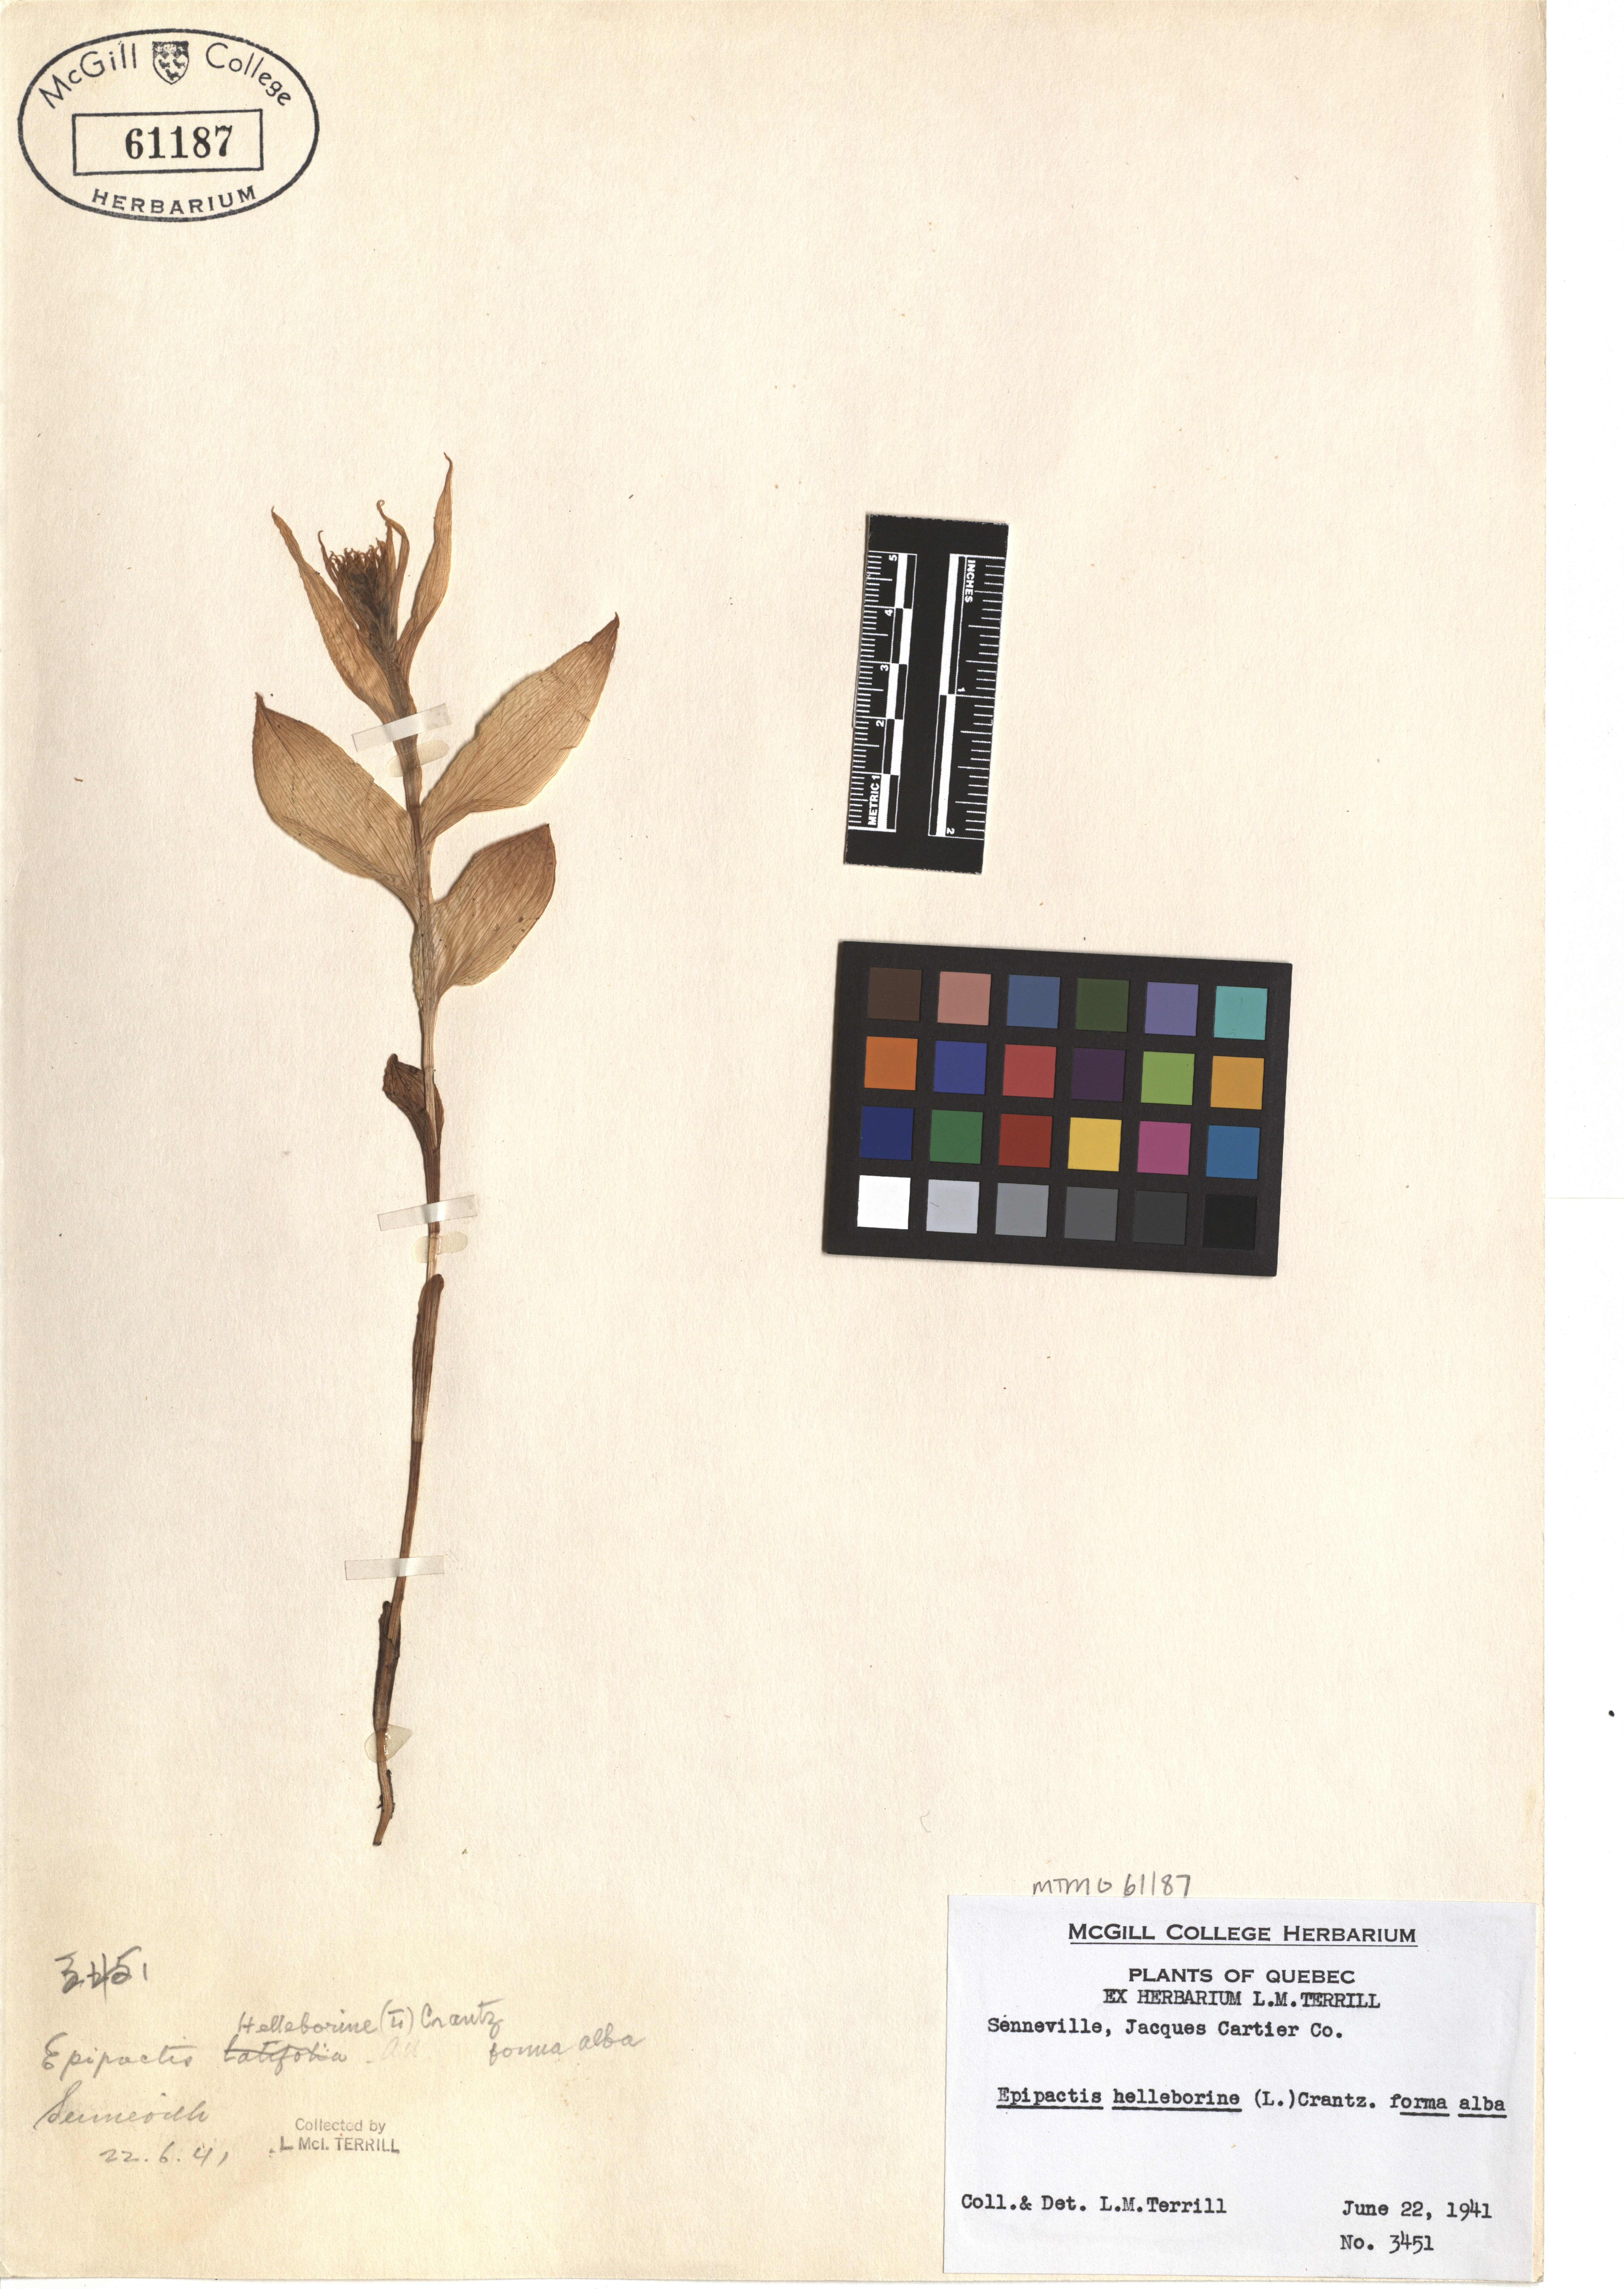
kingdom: Plantae
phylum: Tracheophyta
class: Liliopsida
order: Asparagales
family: Orchidaceae
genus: Epipactis
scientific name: Epipactis helleborine
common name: Broad-leaved helleborine
